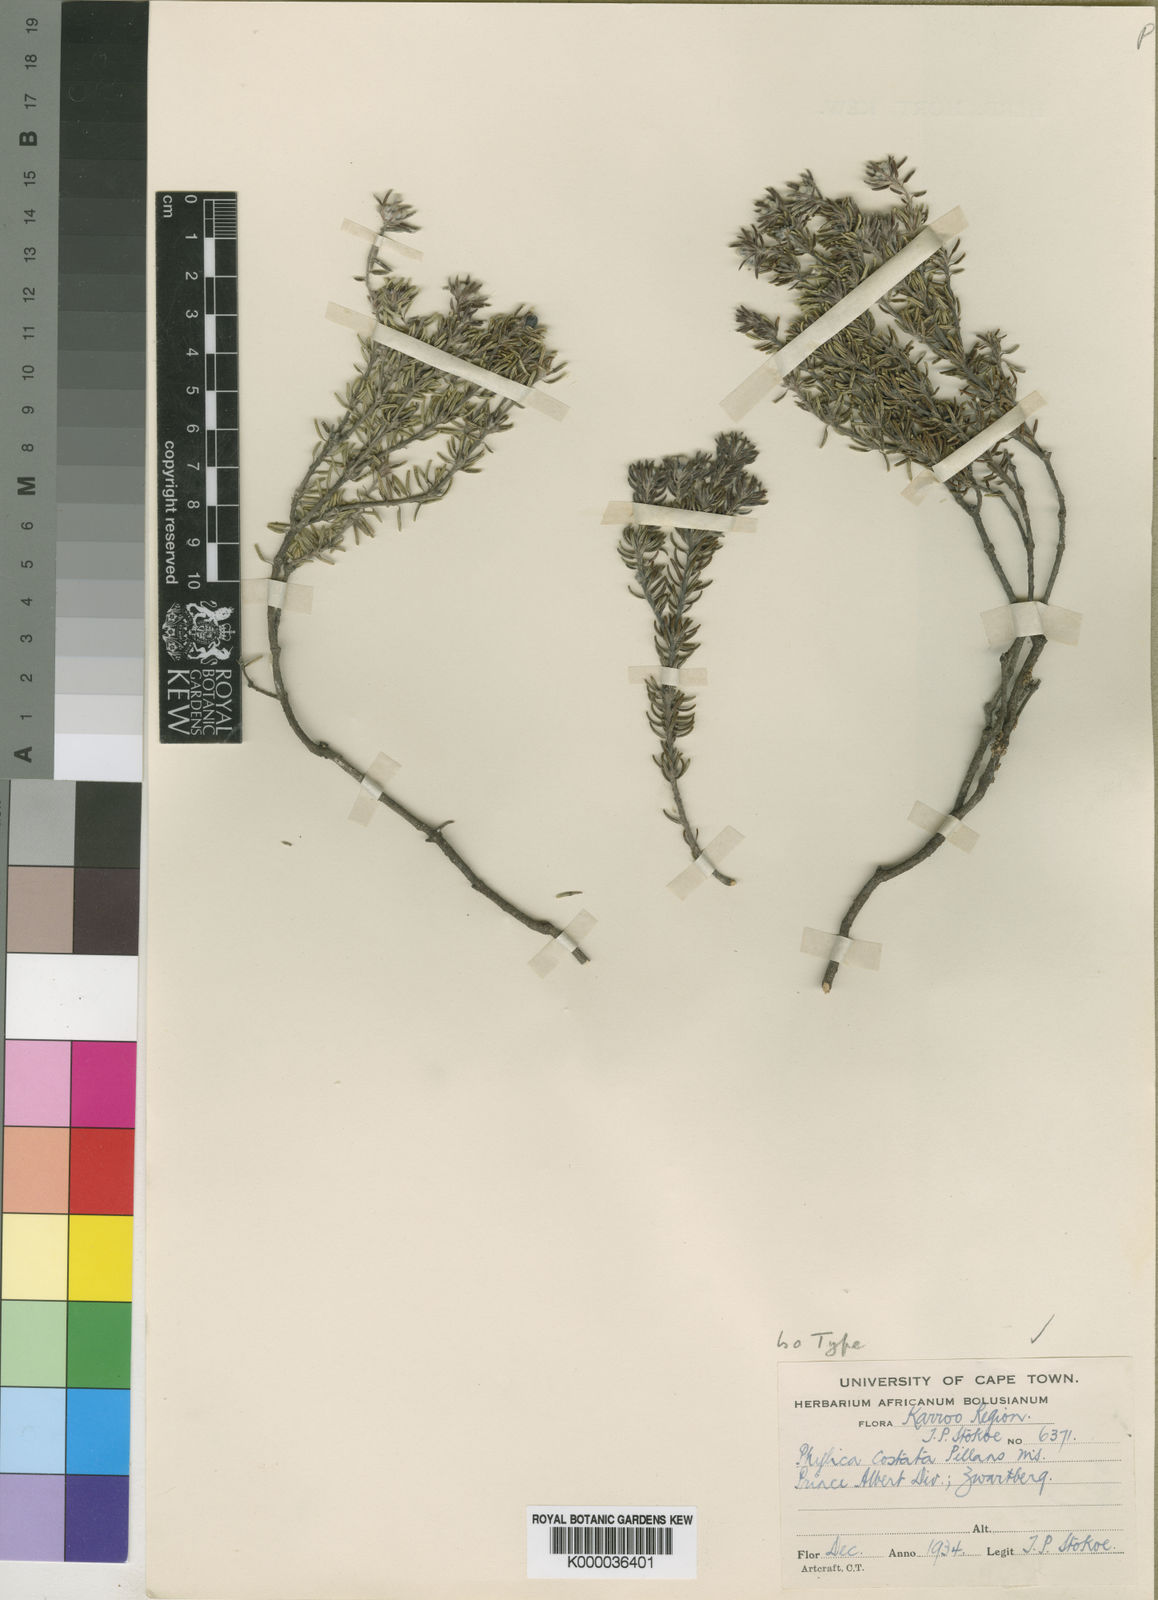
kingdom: Plantae
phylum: Tracheophyta
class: Magnoliopsida
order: Rosales
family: Rhamnaceae
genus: Phylica
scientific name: Phylica costata
